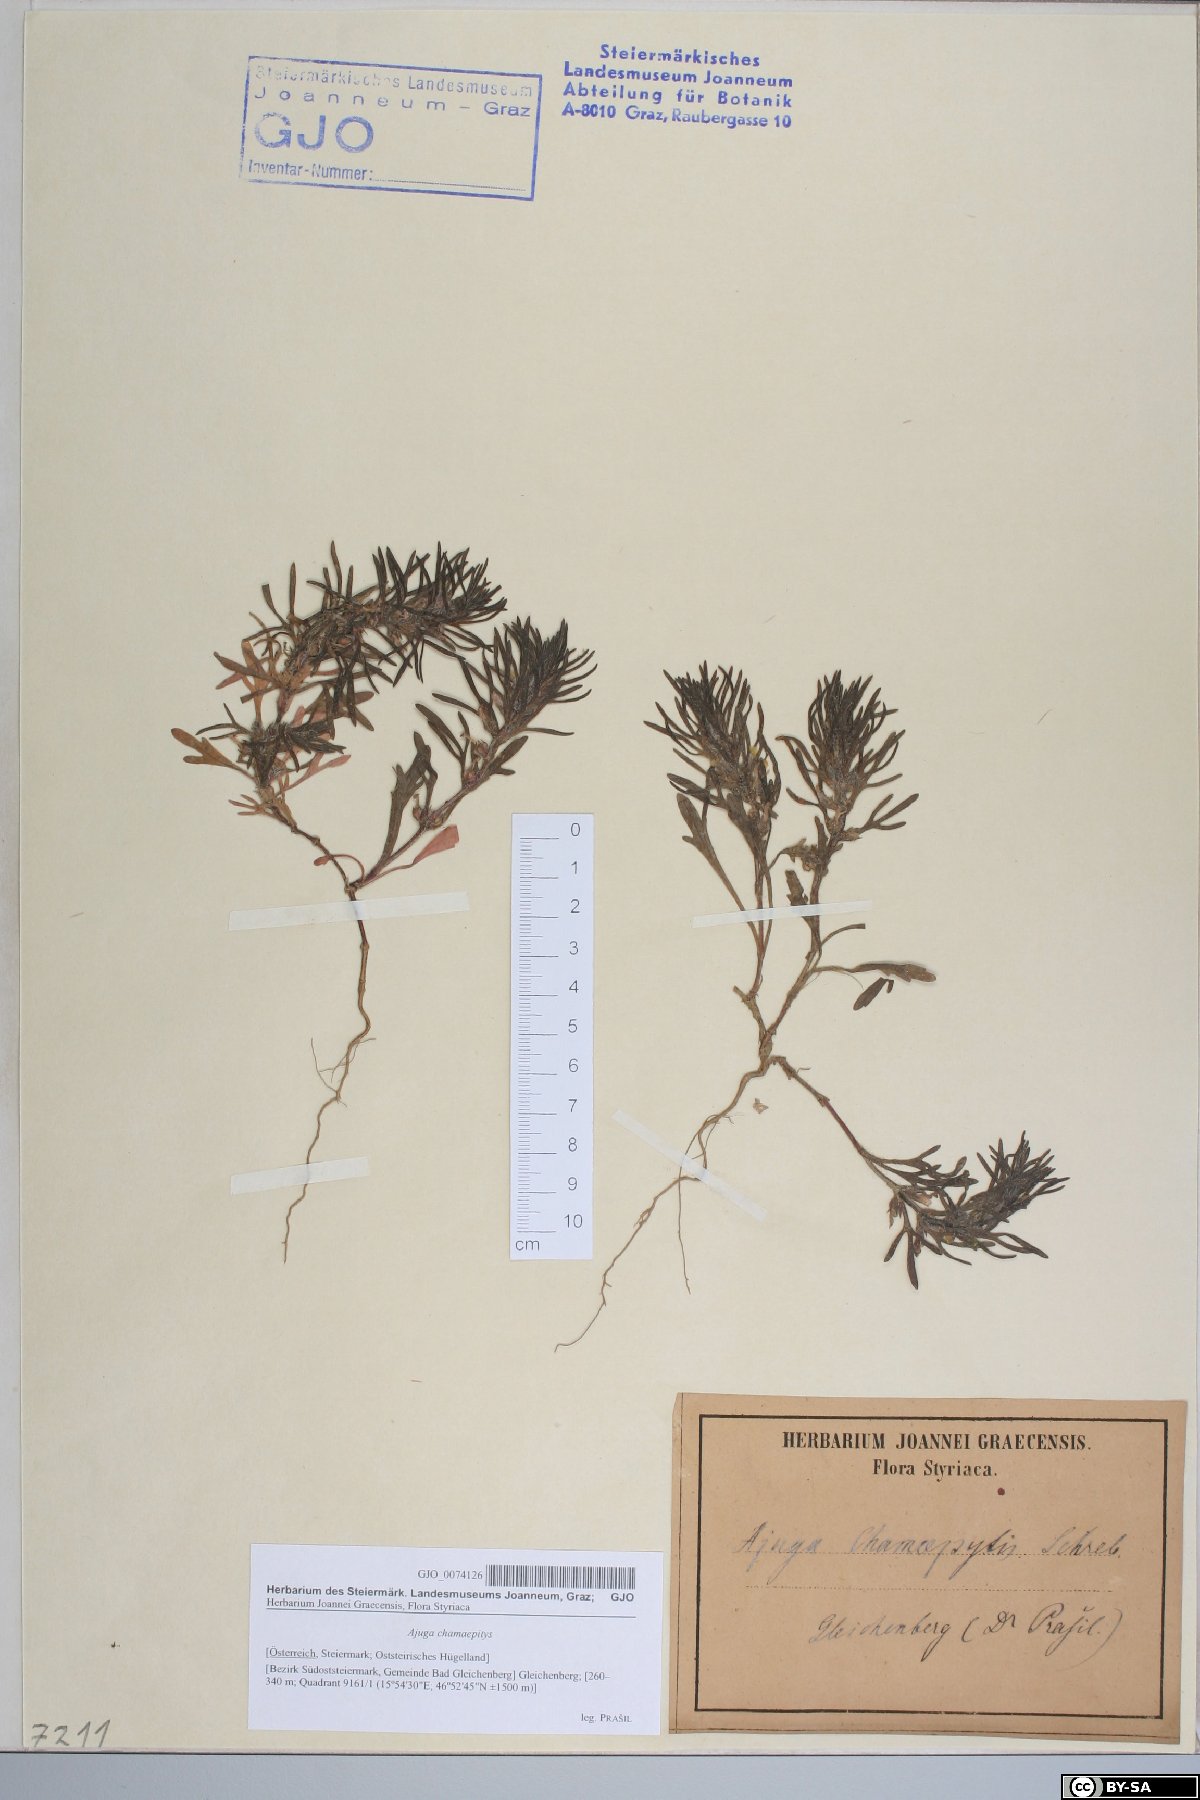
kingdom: Plantae
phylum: Tracheophyta
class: Magnoliopsida
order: Lamiales
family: Lamiaceae
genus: Ajuga
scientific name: Ajuga chamaepitys
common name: Ground-pine
